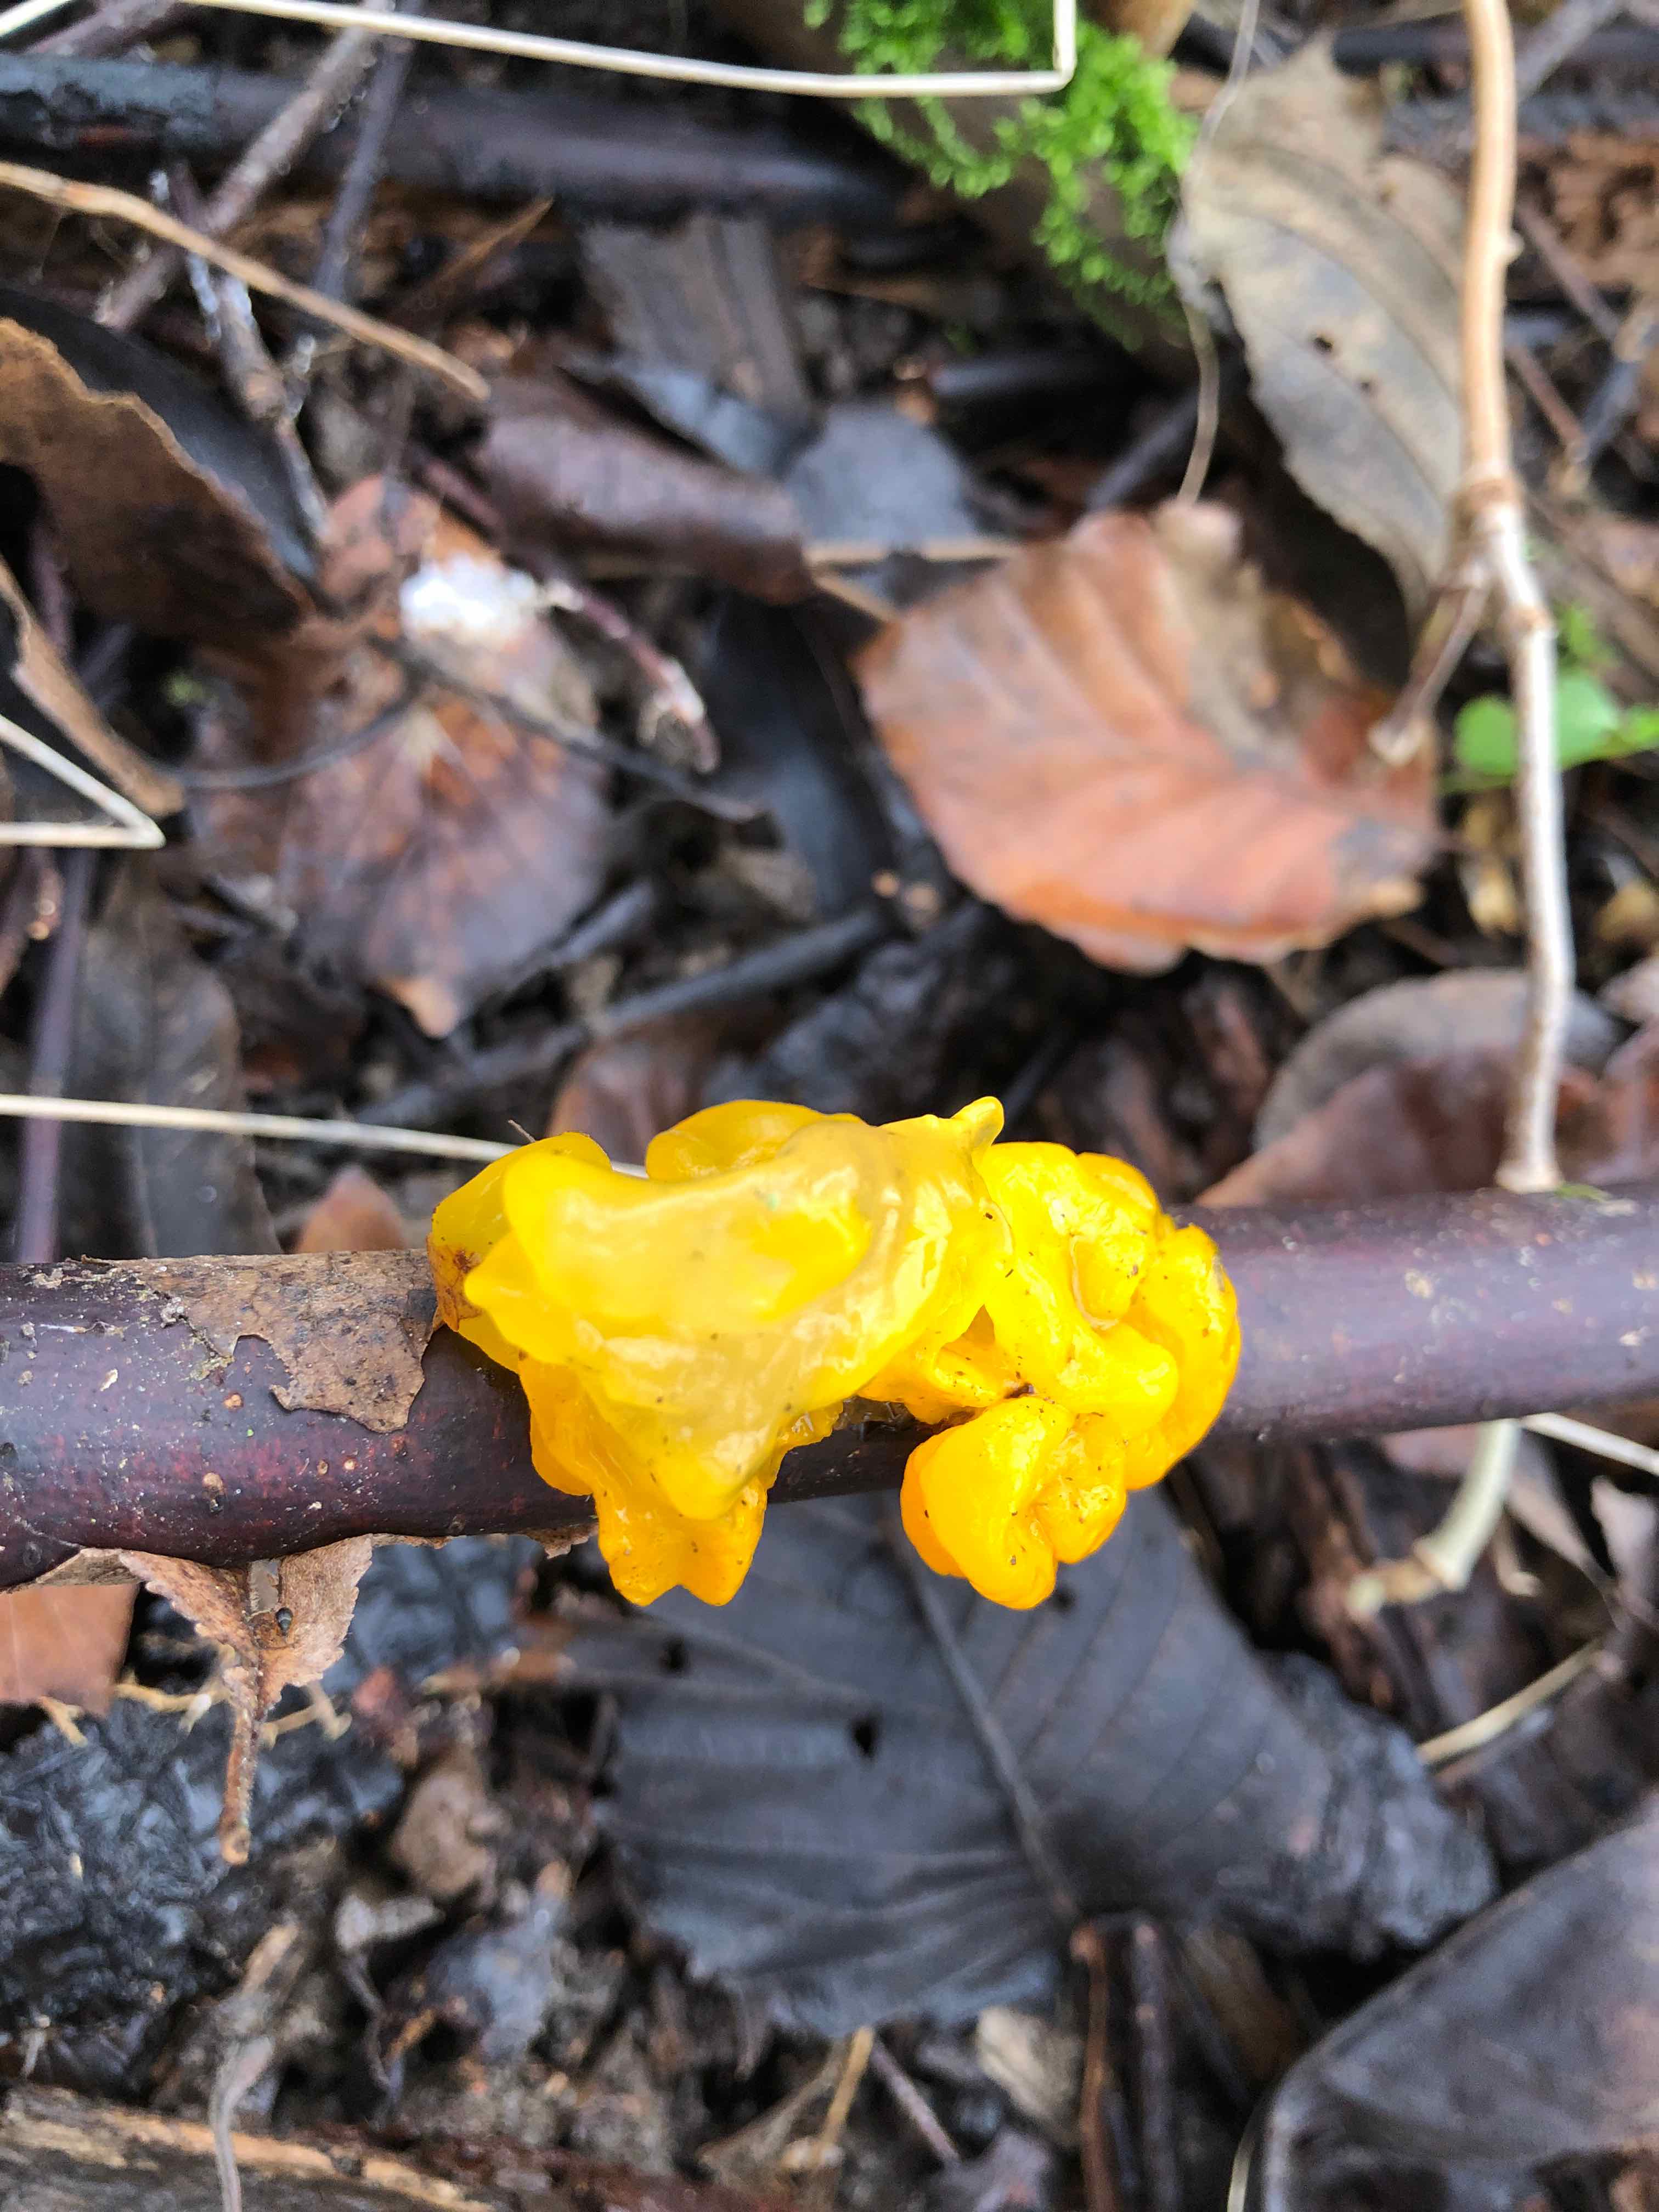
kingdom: Fungi
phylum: Basidiomycota
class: Tremellomycetes
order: Tremellales
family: Tremellaceae
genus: Tremella
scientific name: Tremella mesenterica
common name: gul bævresvamp
